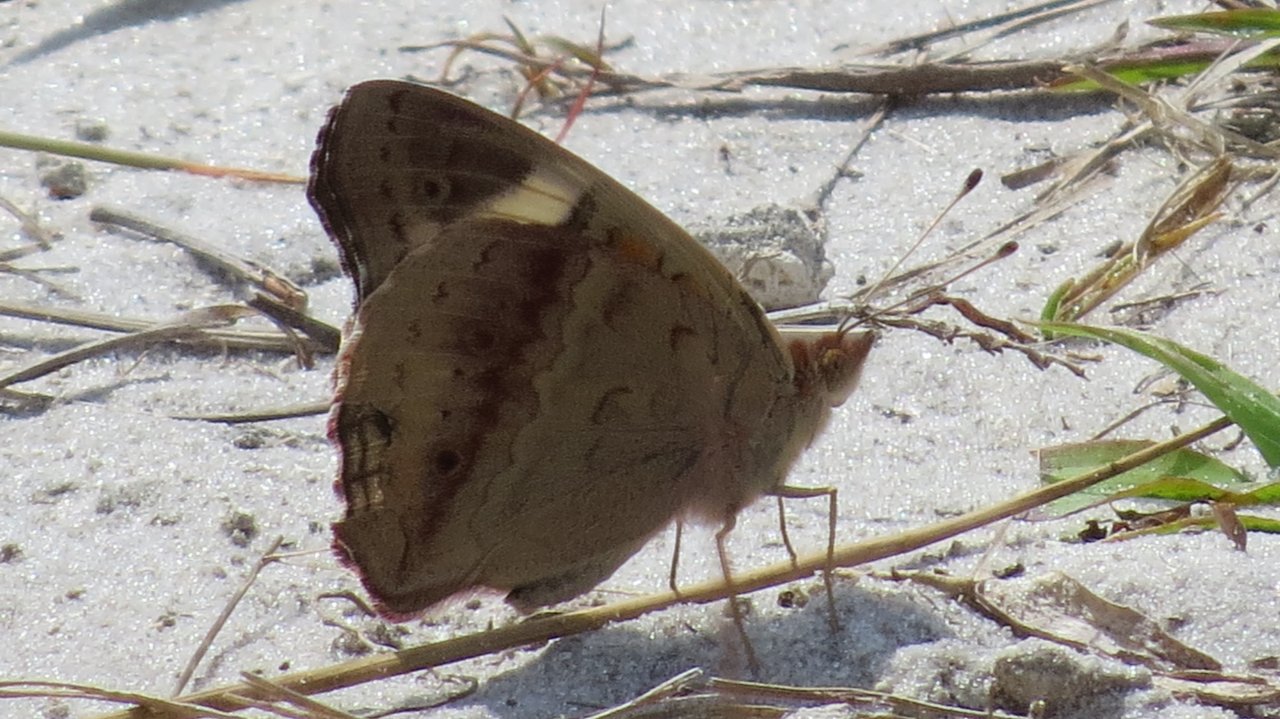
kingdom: Animalia
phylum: Arthropoda
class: Insecta
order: Lepidoptera
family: Nymphalidae
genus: Junonia
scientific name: Junonia coenia
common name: Common Buckeye
